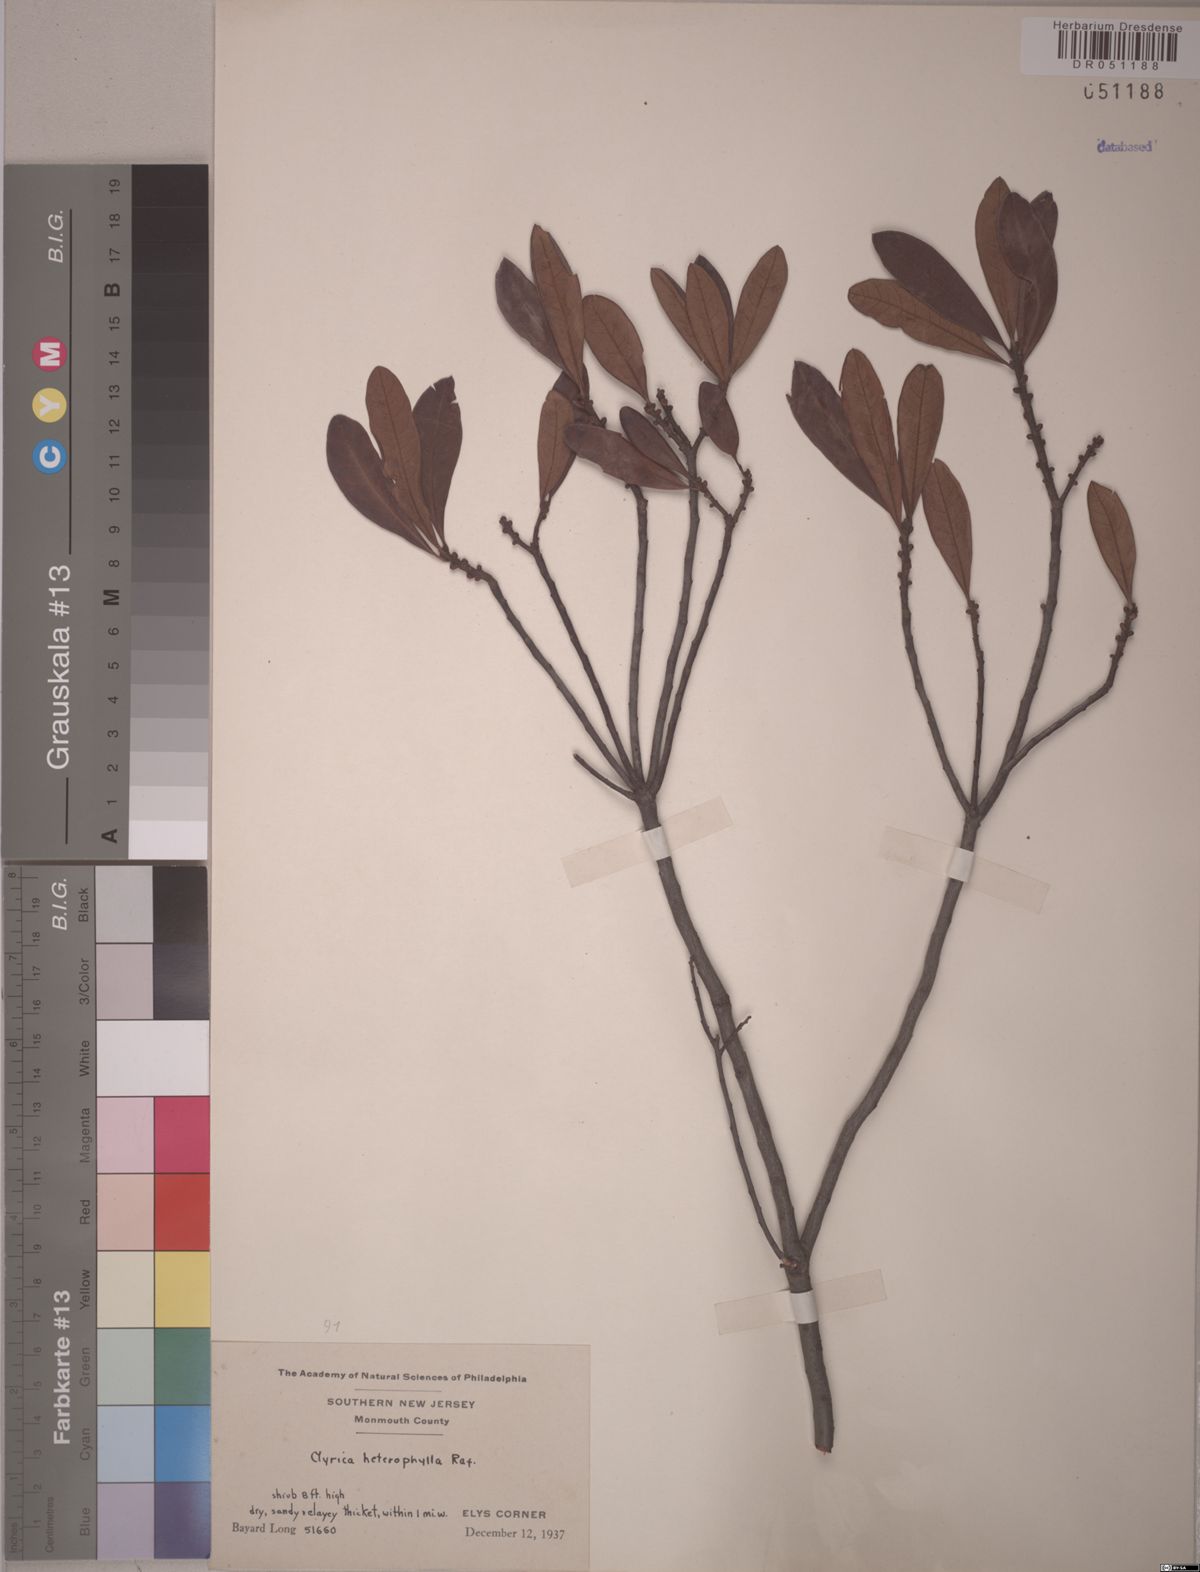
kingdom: Plantae
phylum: Tracheophyta
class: Magnoliopsida
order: Fagales
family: Myricaceae
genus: Morella
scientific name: Morella caroliniensis
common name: Evergreen bayberry
